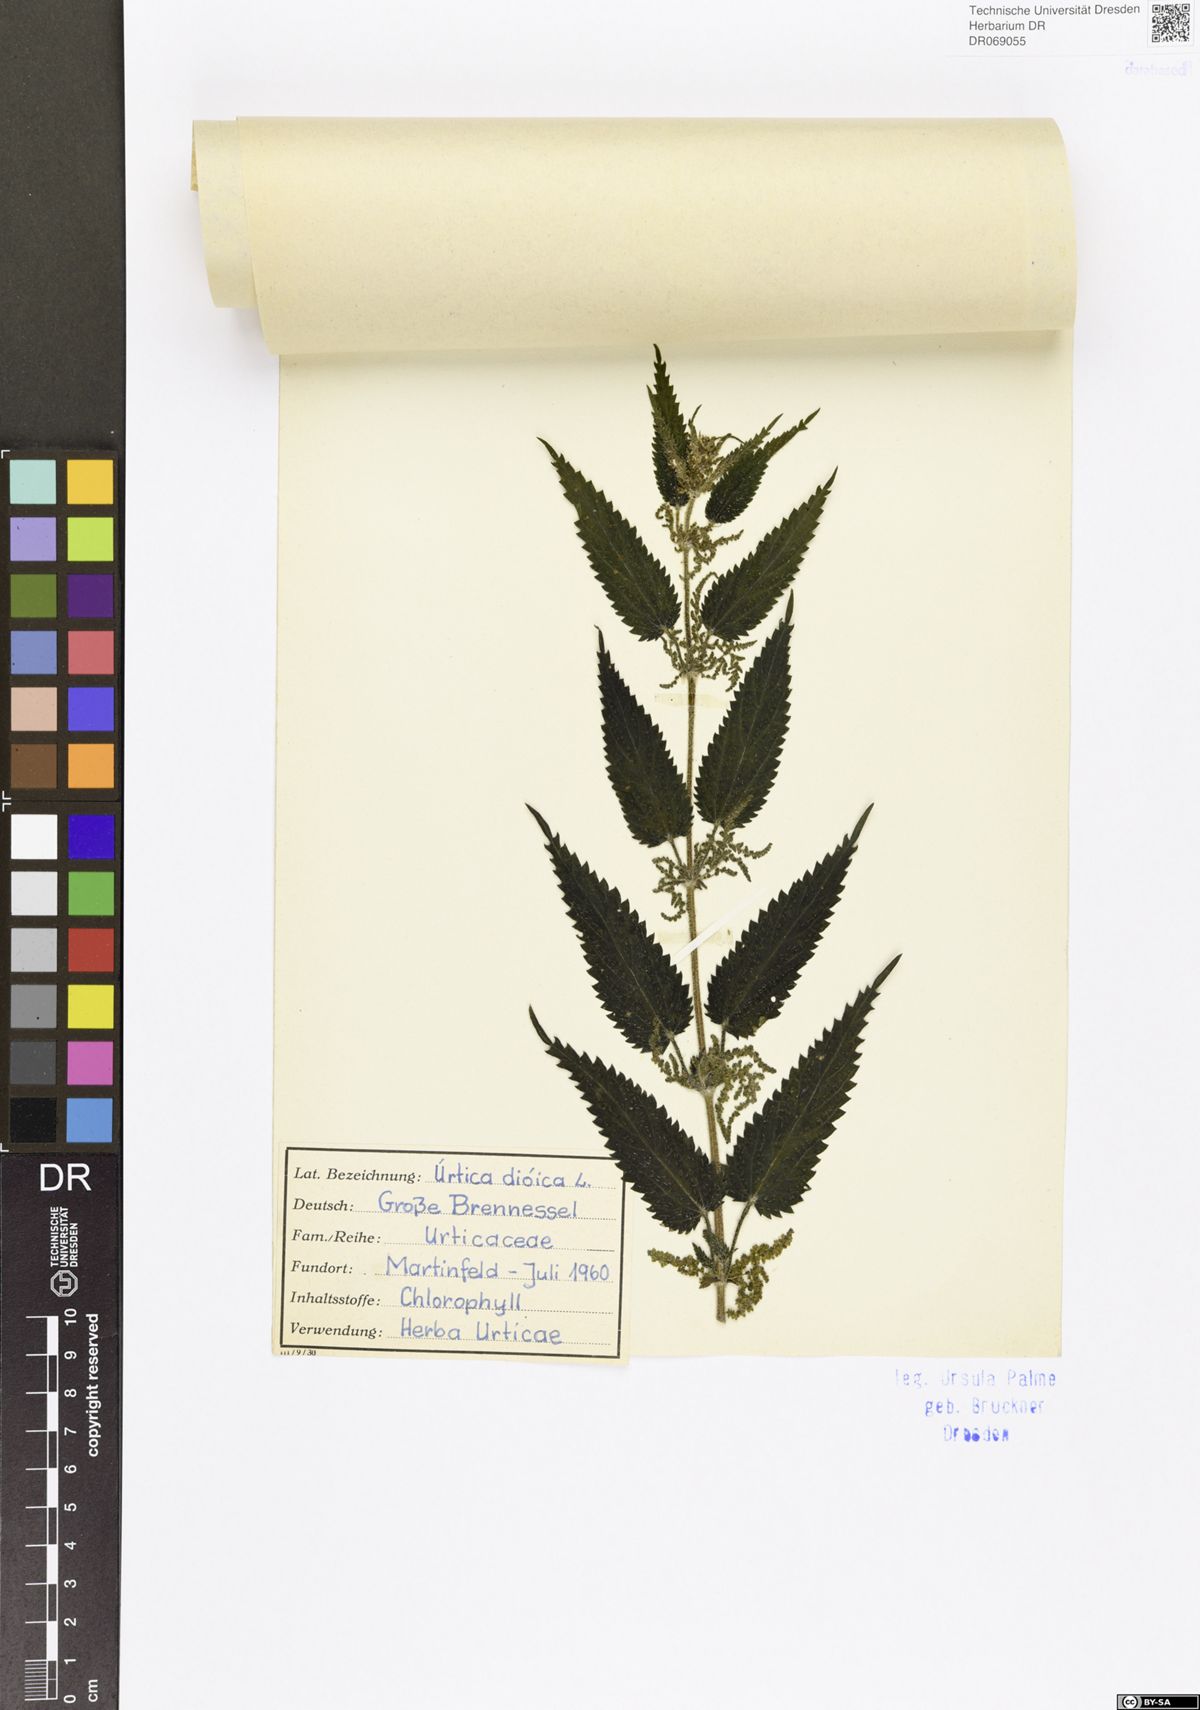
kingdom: Plantae
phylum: Tracheophyta
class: Magnoliopsida
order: Rosales
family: Urticaceae
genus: Urtica
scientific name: Urtica dioica
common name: Common nettle
